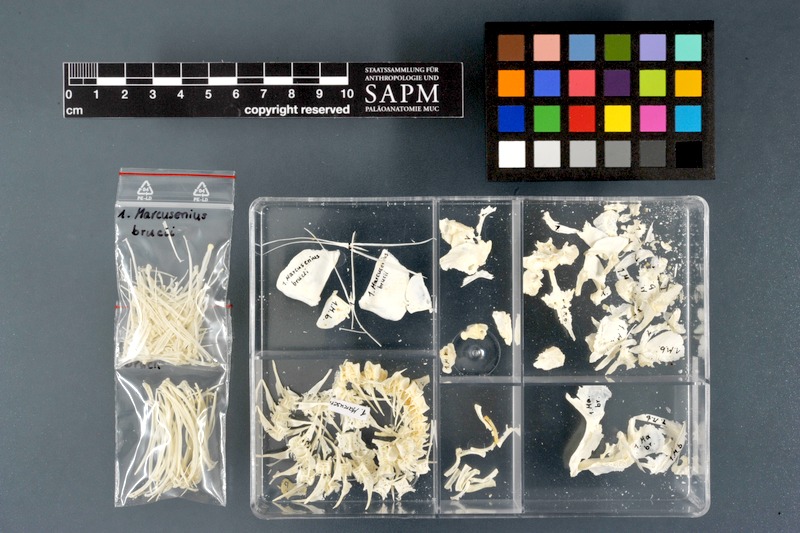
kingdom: Animalia
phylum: Chordata
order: Osteoglossiformes
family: Mormyridae
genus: Marcusenius
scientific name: Marcusenius brucii
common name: Ogun mormyrid
